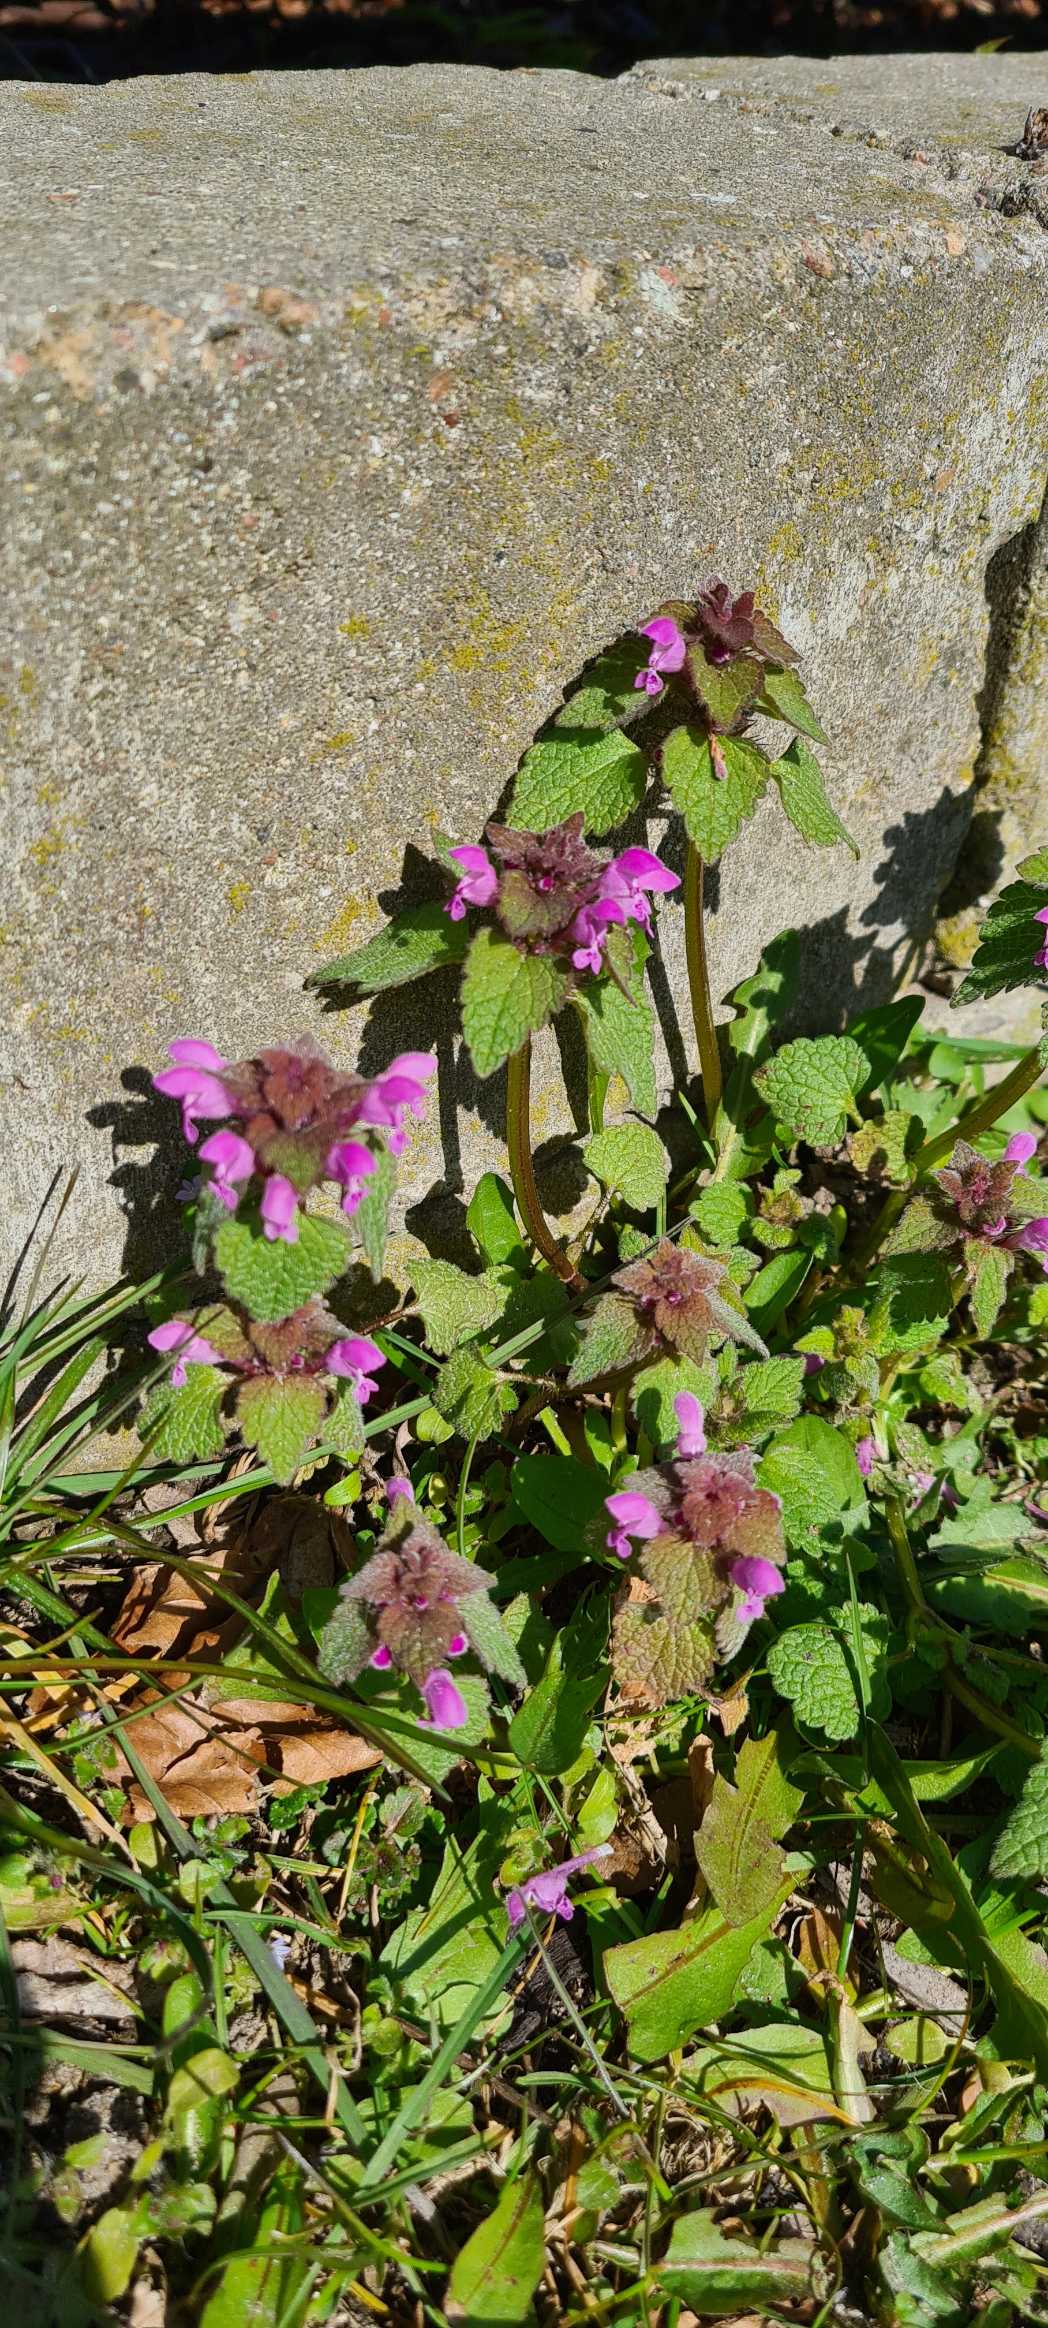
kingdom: Plantae
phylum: Tracheophyta
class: Magnoliopsida
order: Lamiales
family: Lamiaceae
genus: Lamium
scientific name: Lamium purpureum
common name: Rød tvetand
